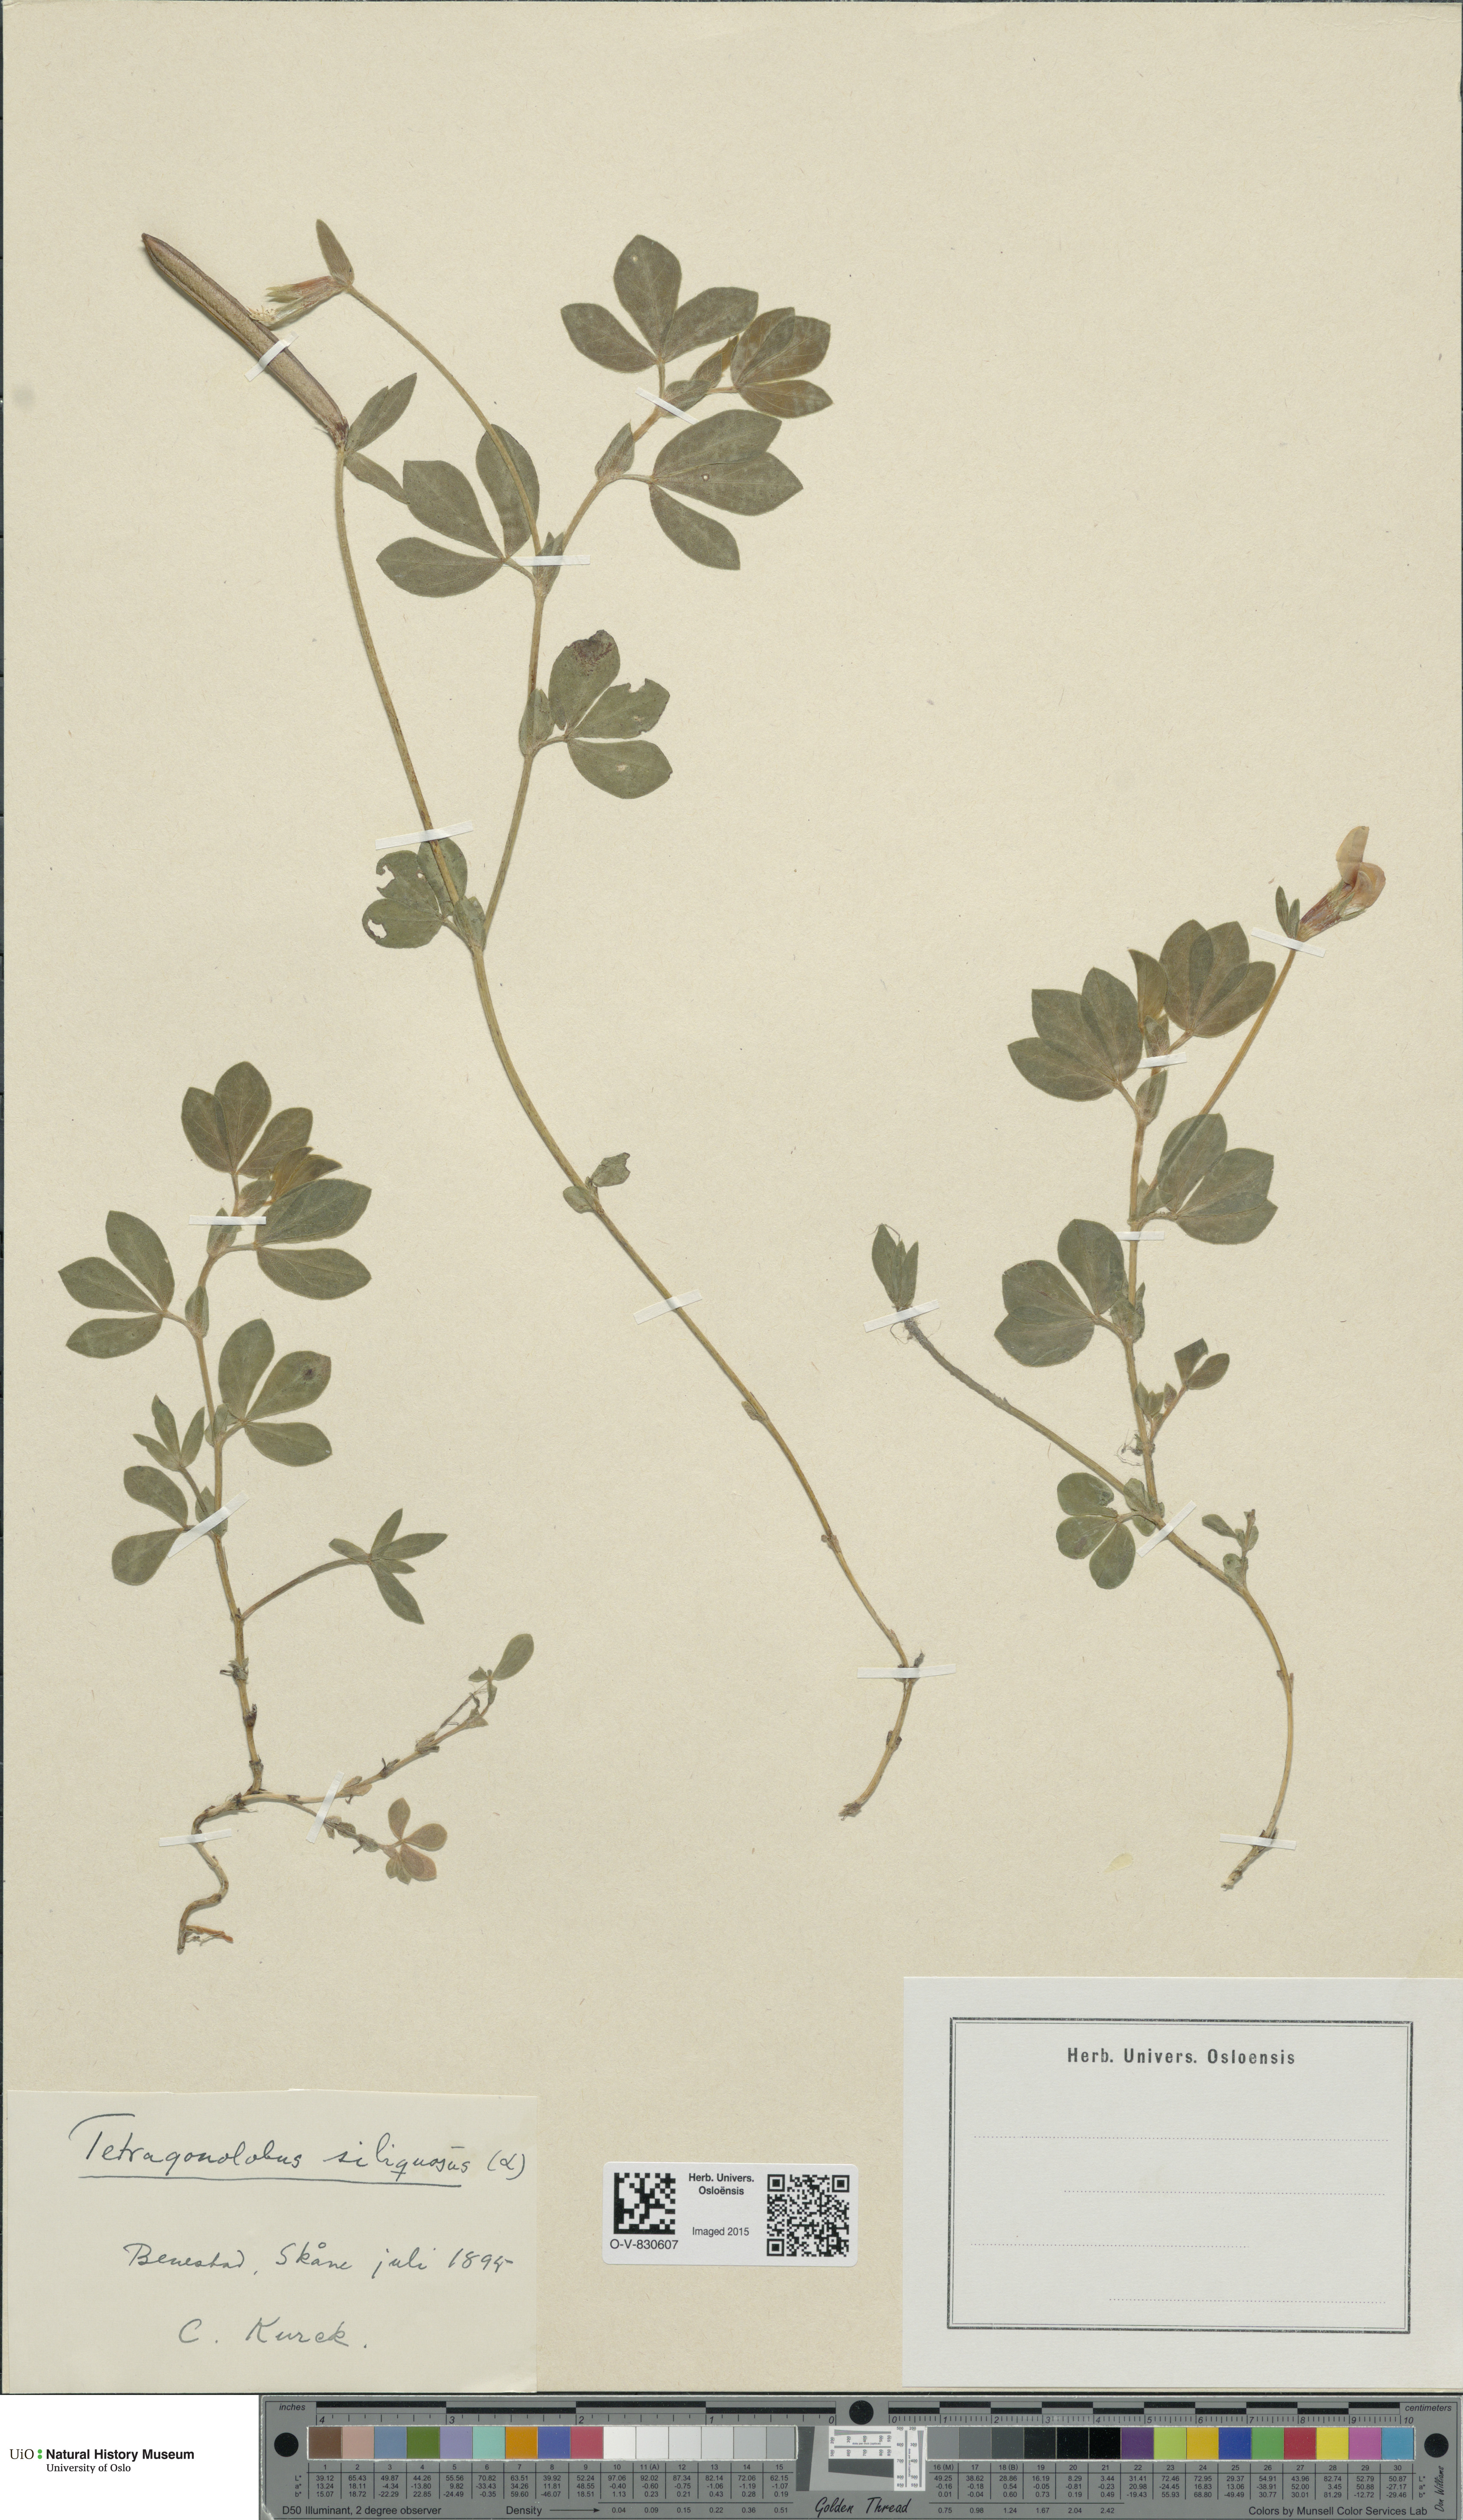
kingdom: Plantae
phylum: Tracheophyta
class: Magnoliopsida
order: Fabales
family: Fabaceae
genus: Lotus
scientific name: Lotus maritimus
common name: Dragon's-teeth
